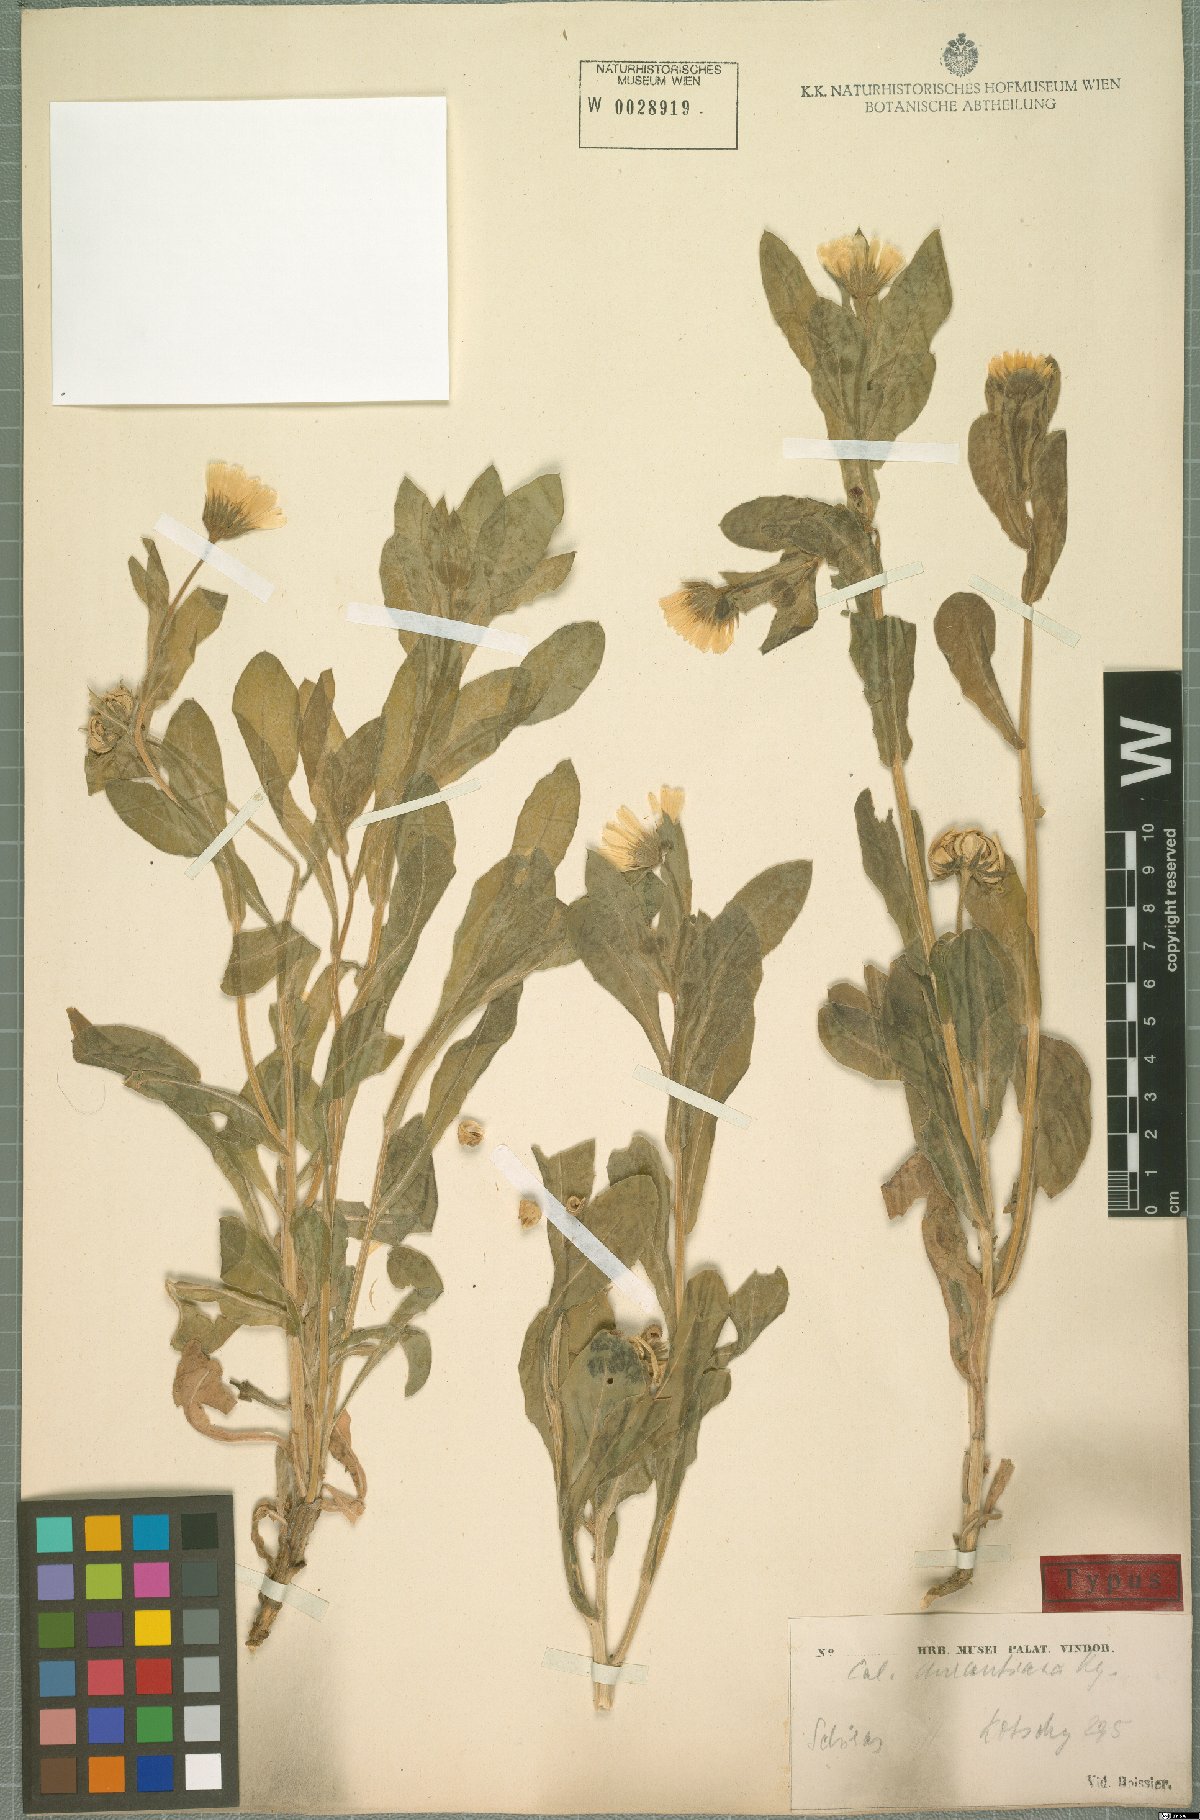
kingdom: Plantae
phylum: Tracheophyta
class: Magnoliopsida
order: Asterales
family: Asteraceae
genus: Calendula
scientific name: Calendula officinalis
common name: Pot marigold
